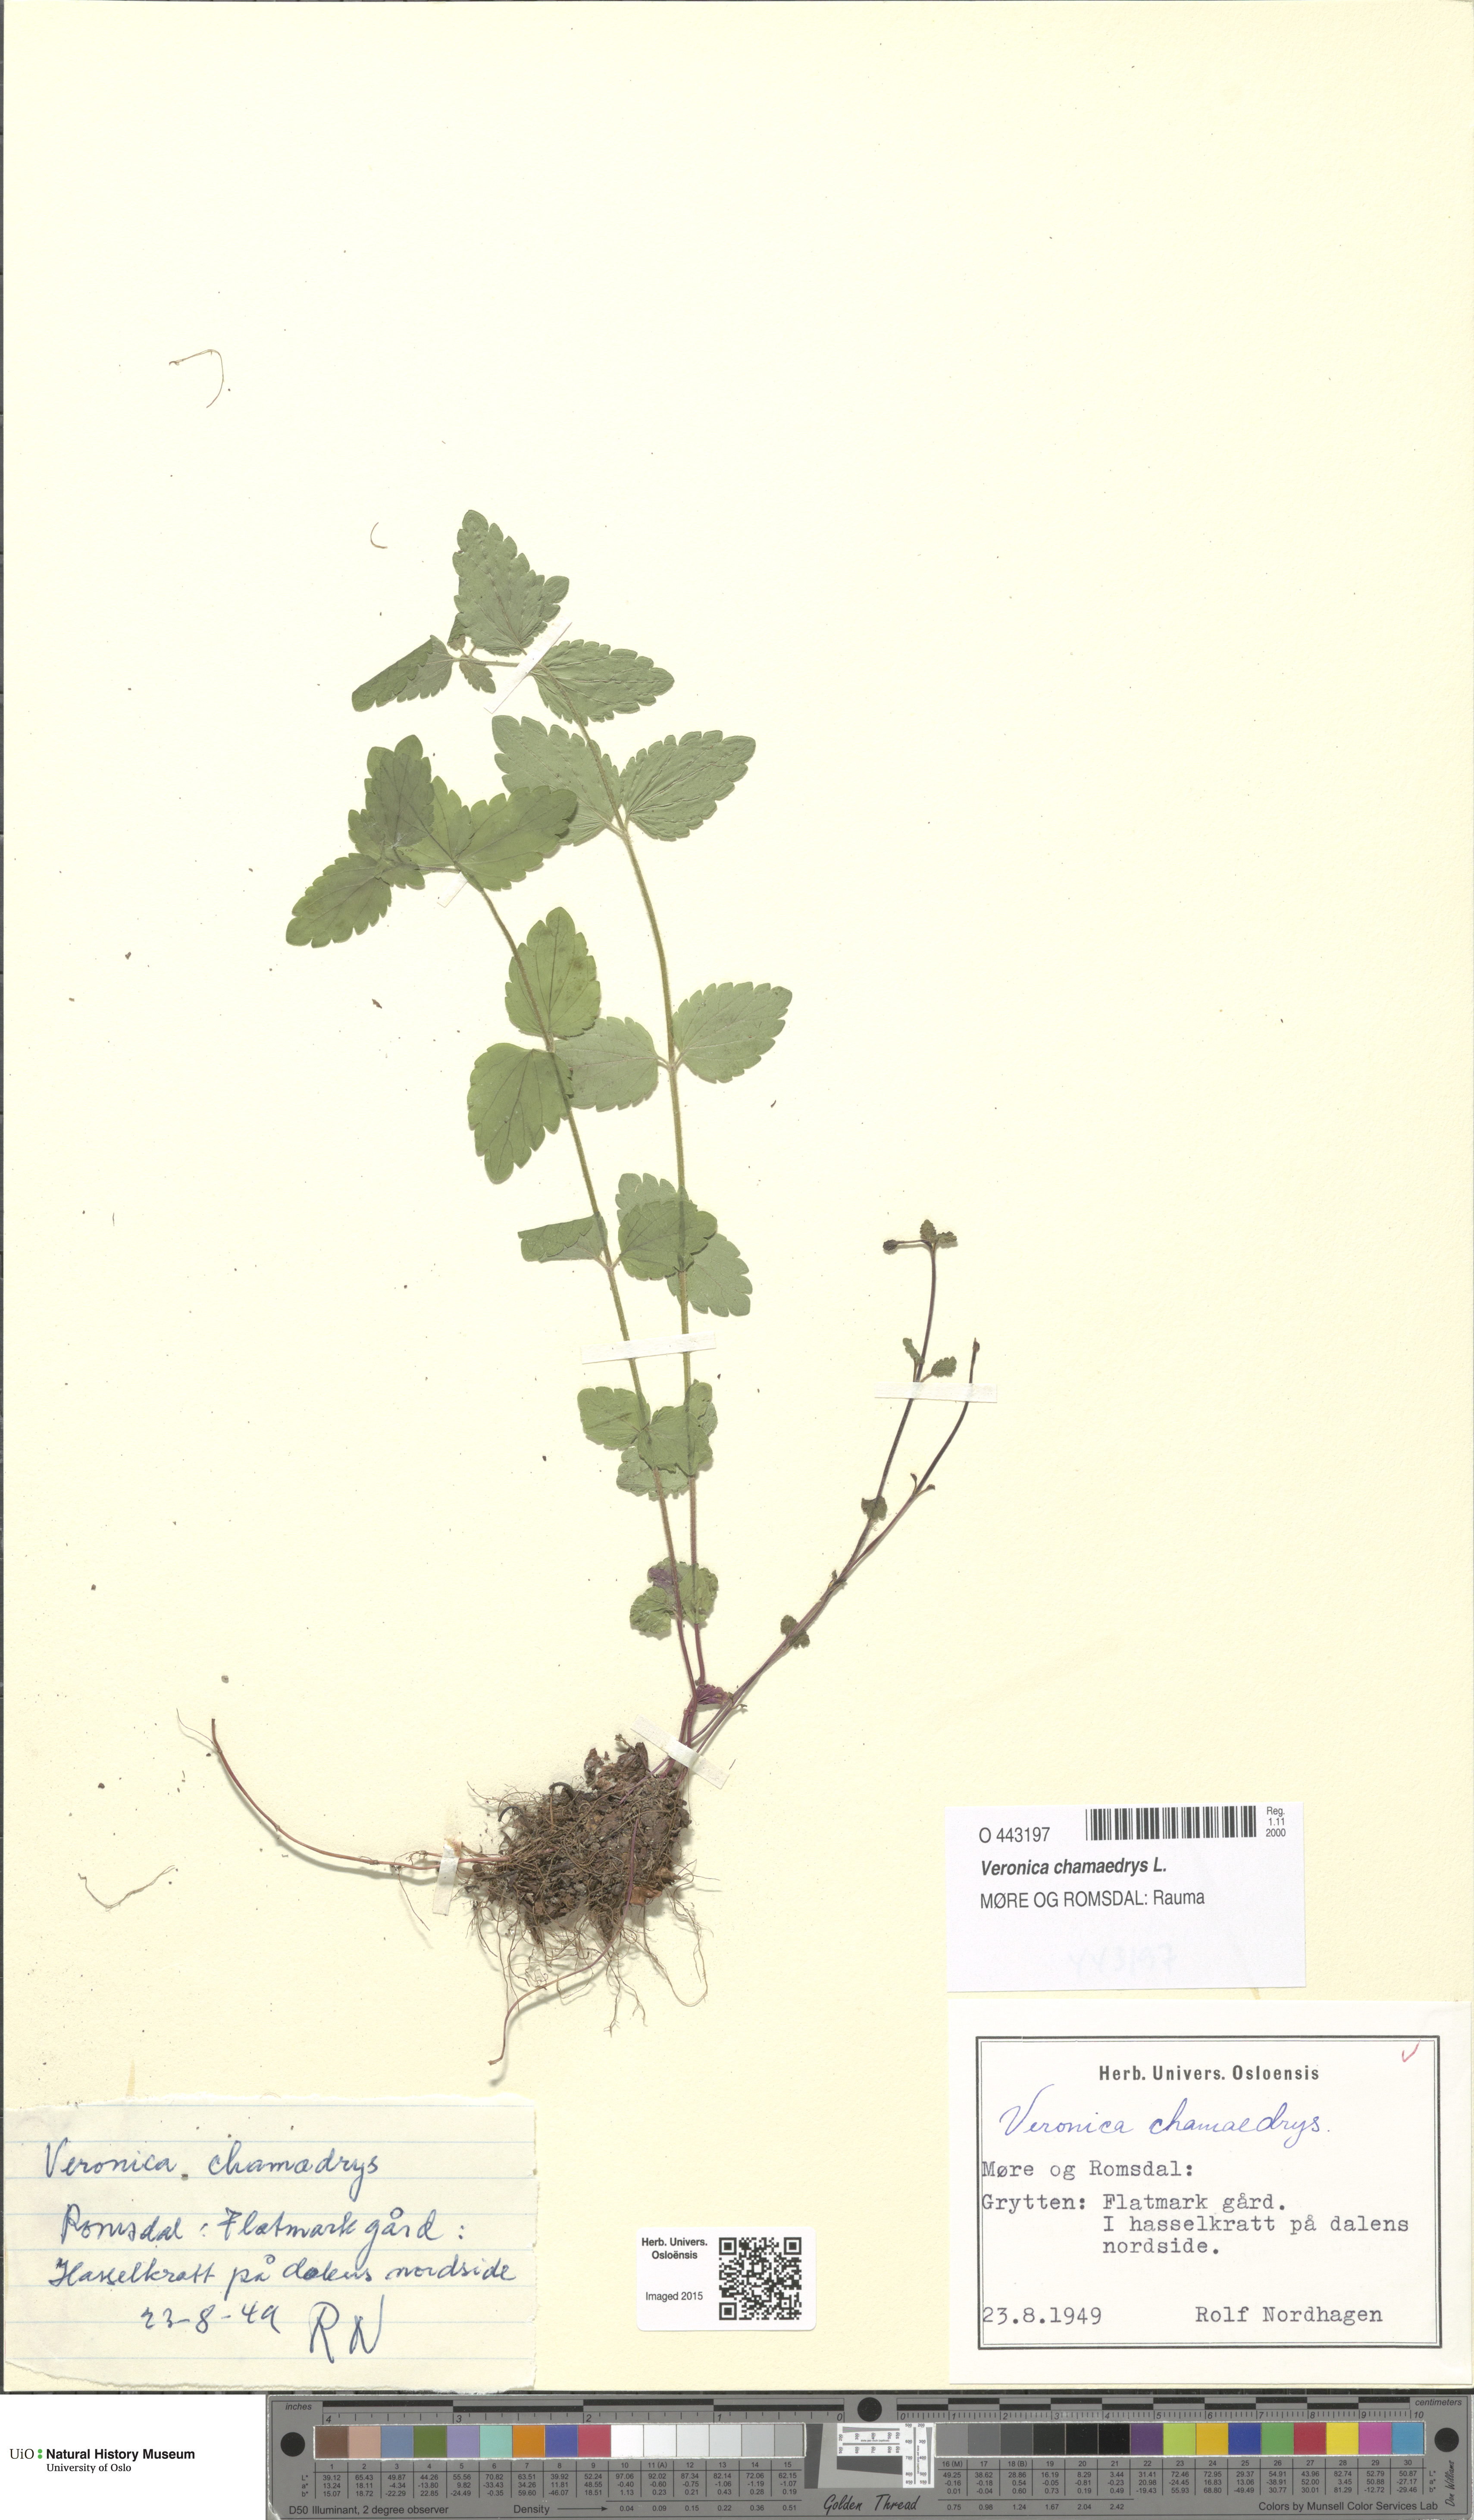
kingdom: Plantae
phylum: Tracheophyta
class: Magnoliopsida
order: Lamiales
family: Plantaginaceae
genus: Veronica
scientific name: Veronica chamaedrys
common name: Germander speedwell
